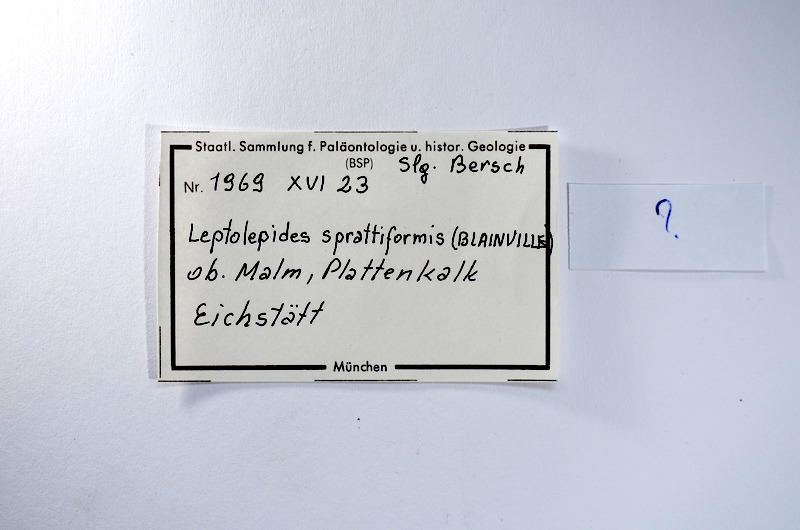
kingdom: Animalia
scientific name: Animalia
